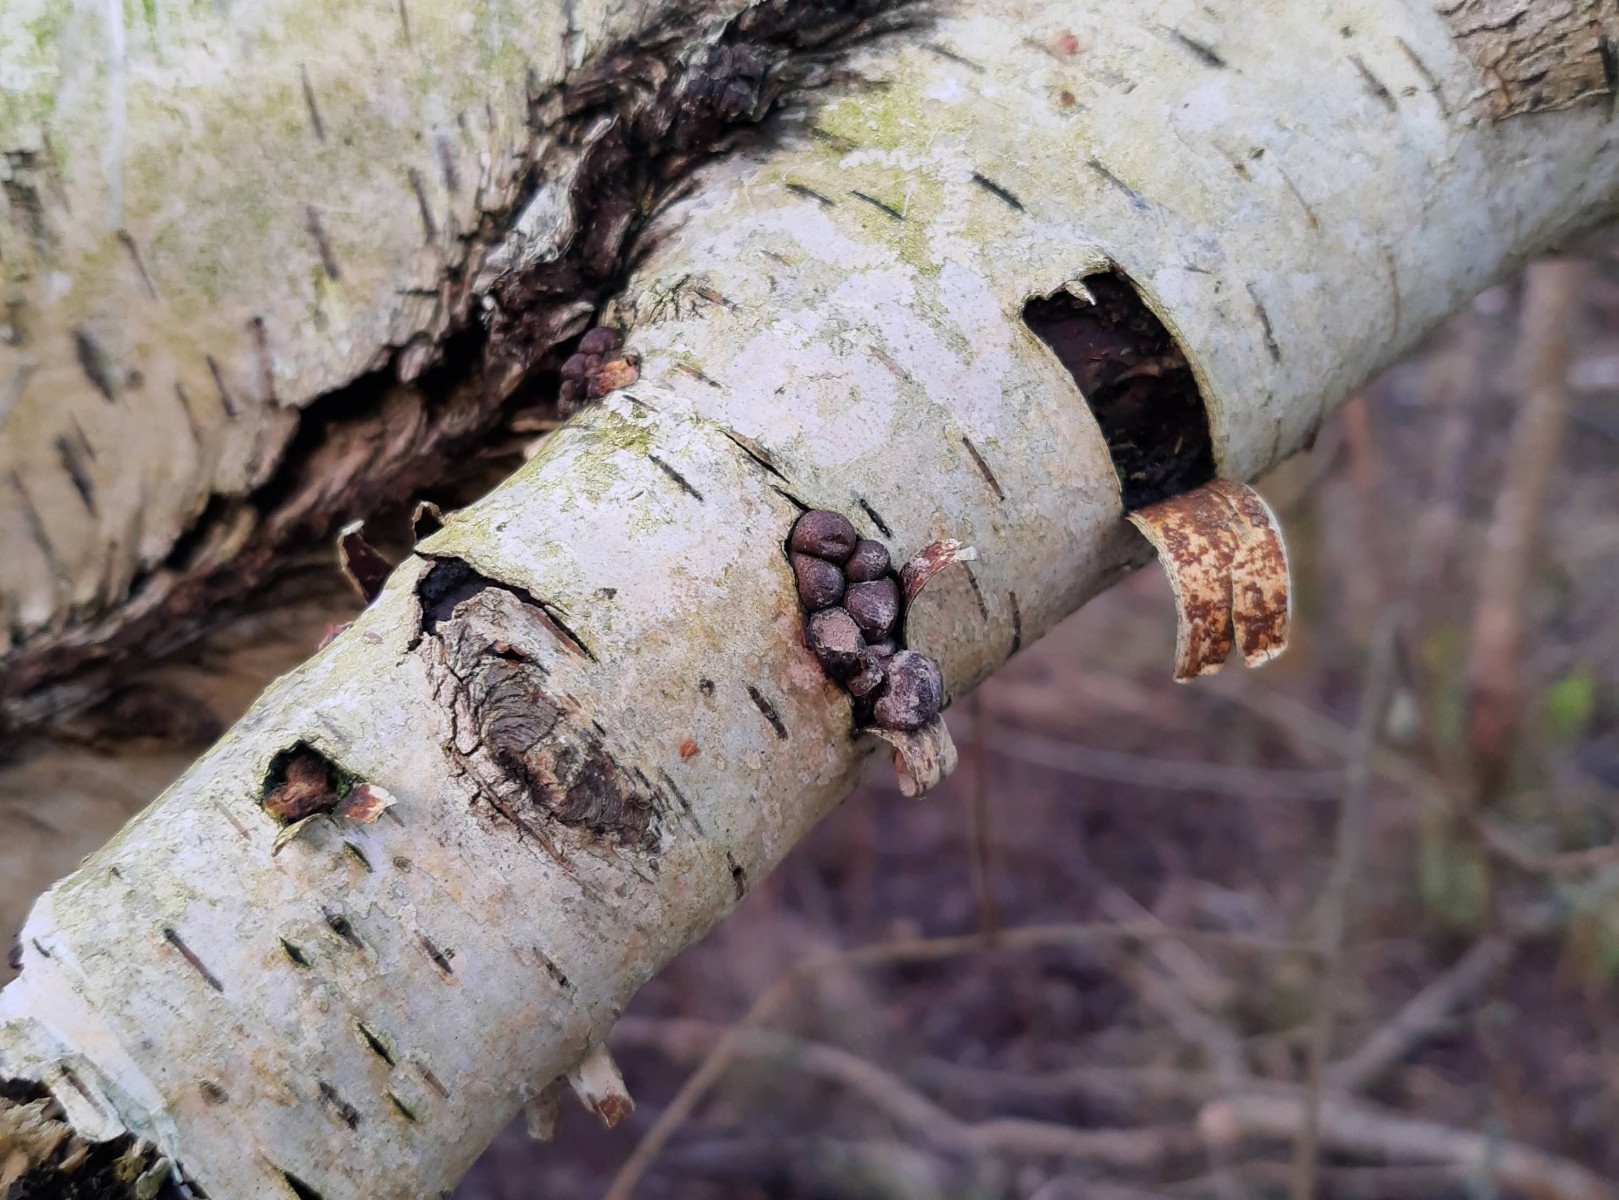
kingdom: Protozoa
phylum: Mycetozoa
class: Myxomycetes
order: Cribrariales
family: Tubiferaceae
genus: Lycogala
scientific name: Lycogala epidendrum
